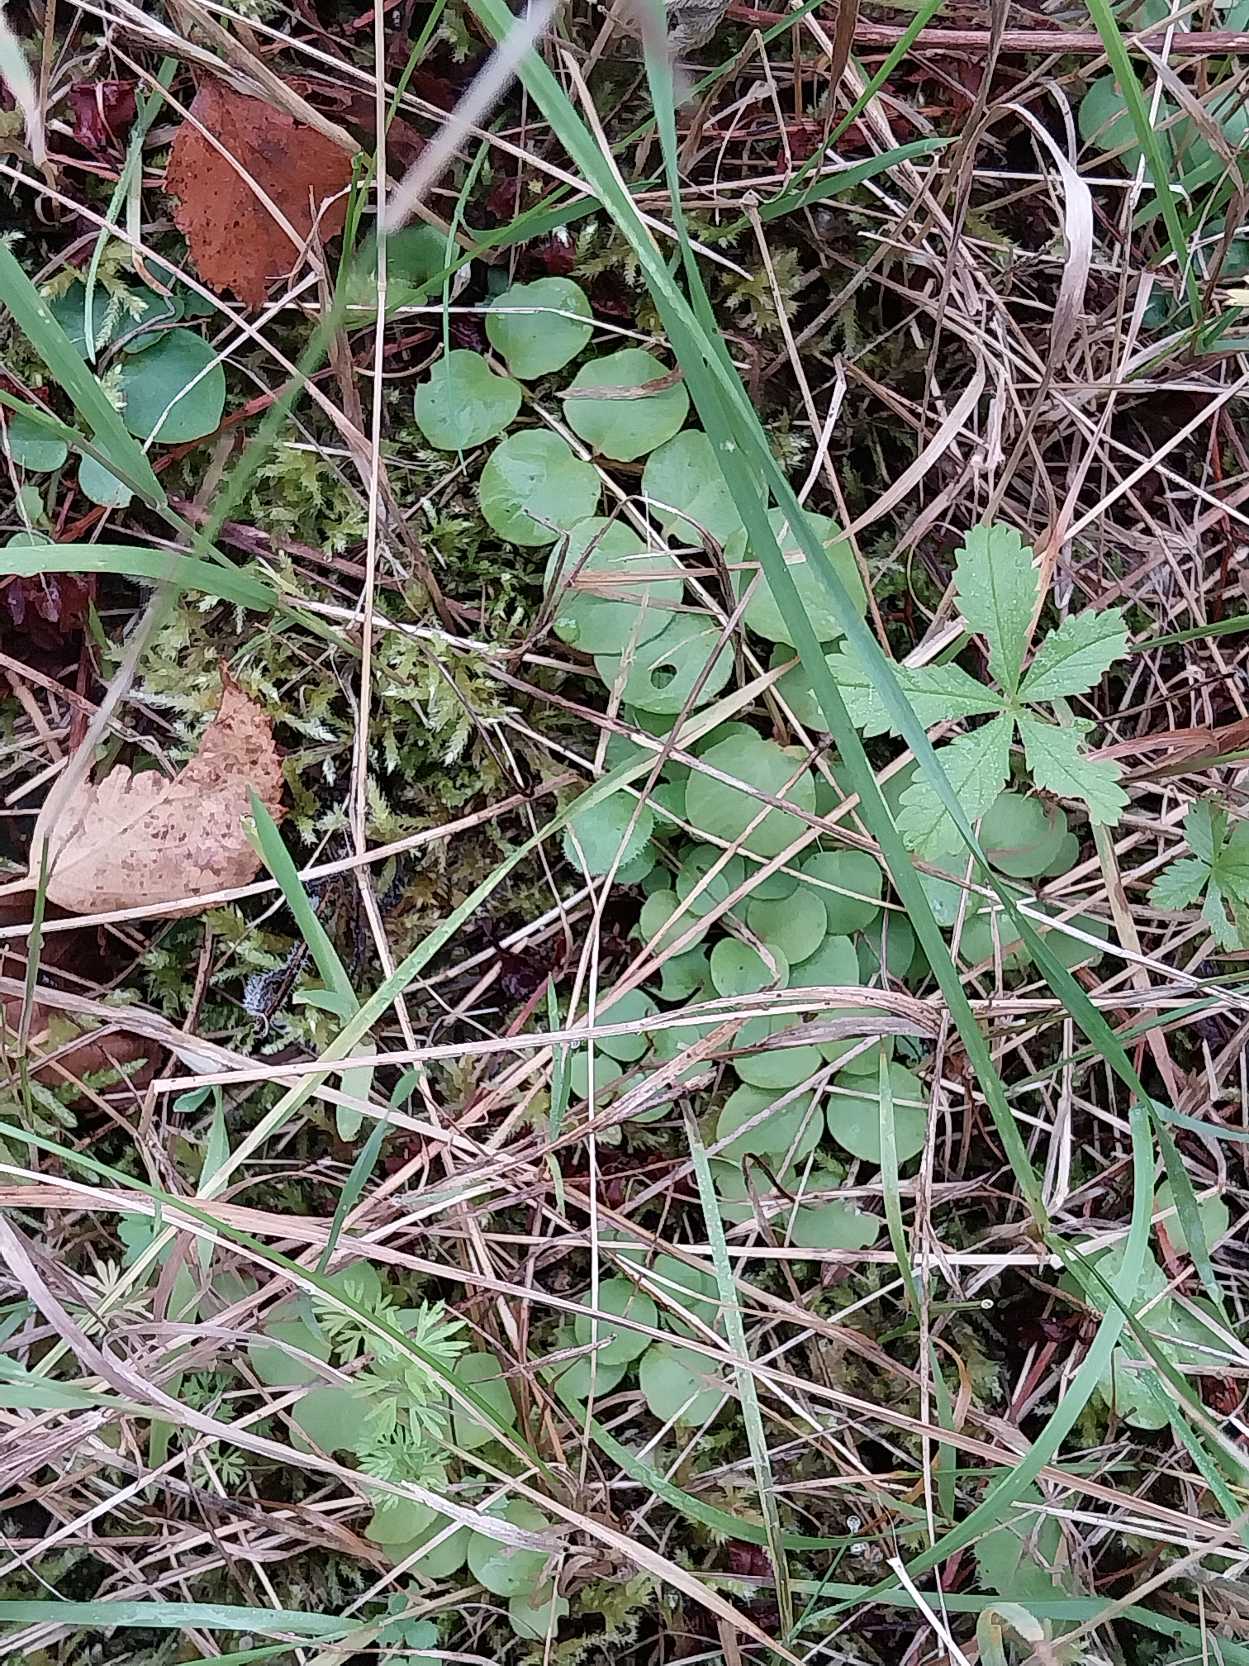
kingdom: Plantae
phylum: Tracheophyta
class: Magnoliopsida
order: Ericales
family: Primulaceae
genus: Lysimachia
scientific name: Lysimachia nummularia
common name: Pengebladet fredløs
